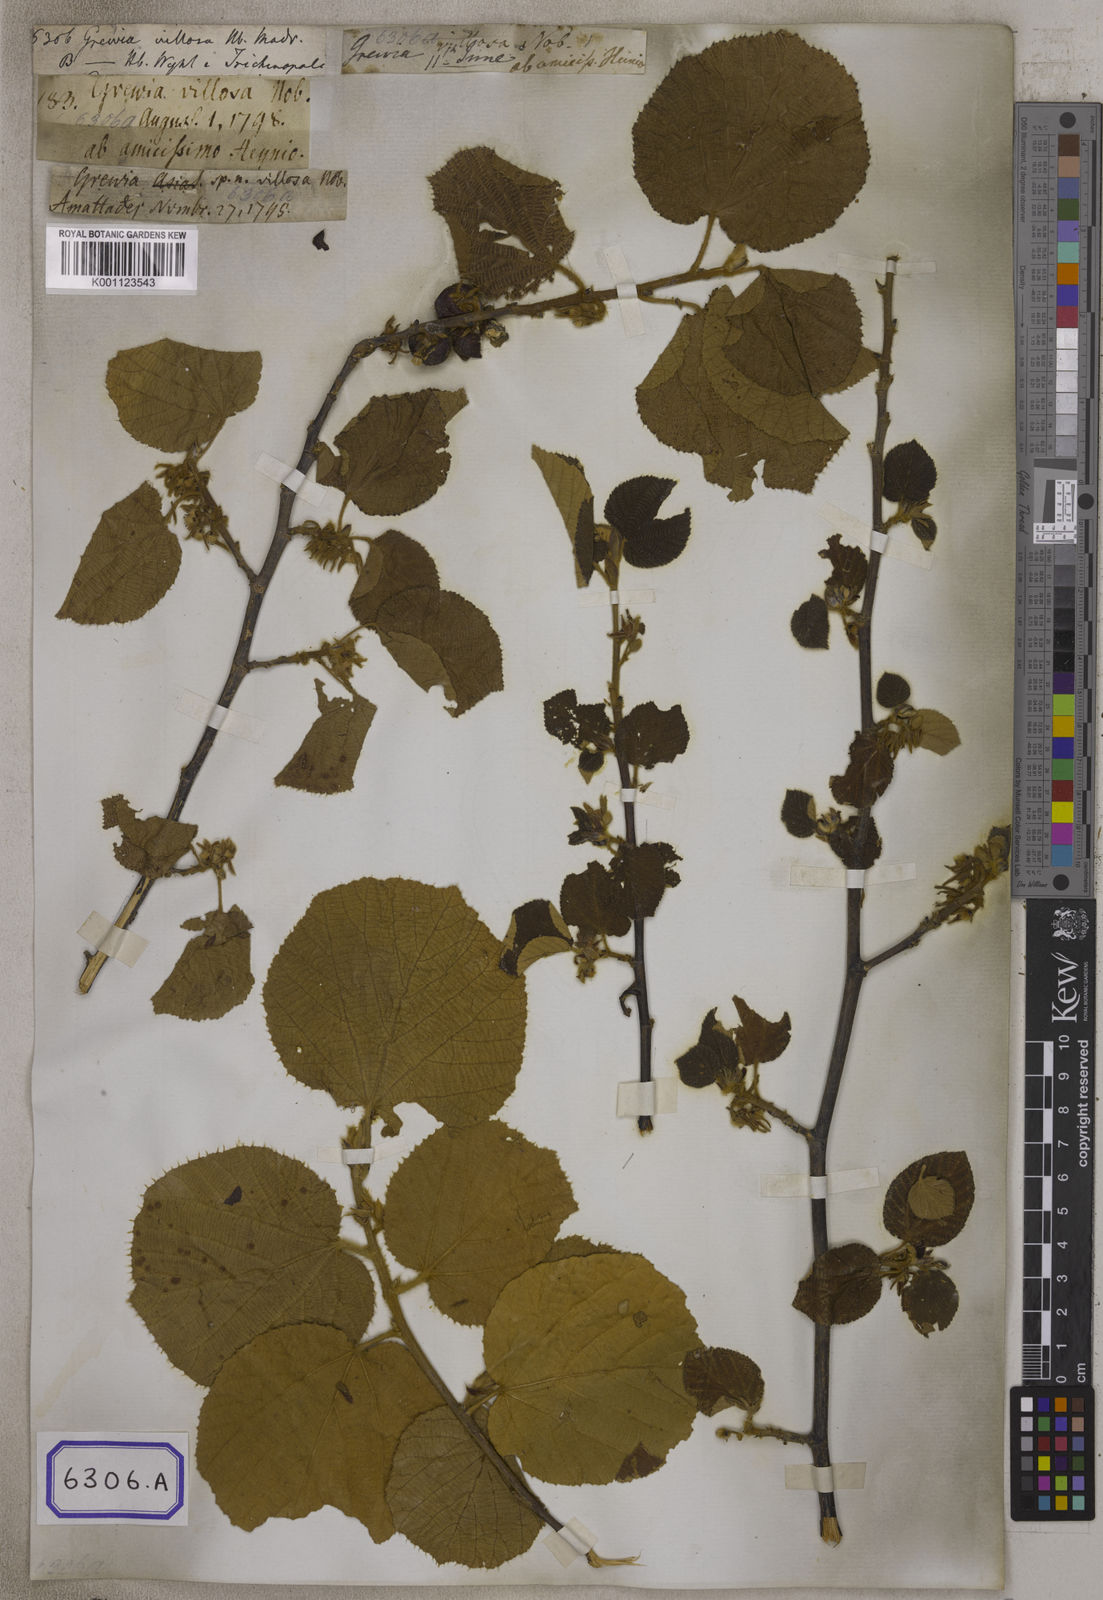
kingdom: Plantae
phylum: Tracheophyta
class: Magnoliopsida
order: Malvales
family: Malvaceae
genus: Grewia
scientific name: Grewia villosa
